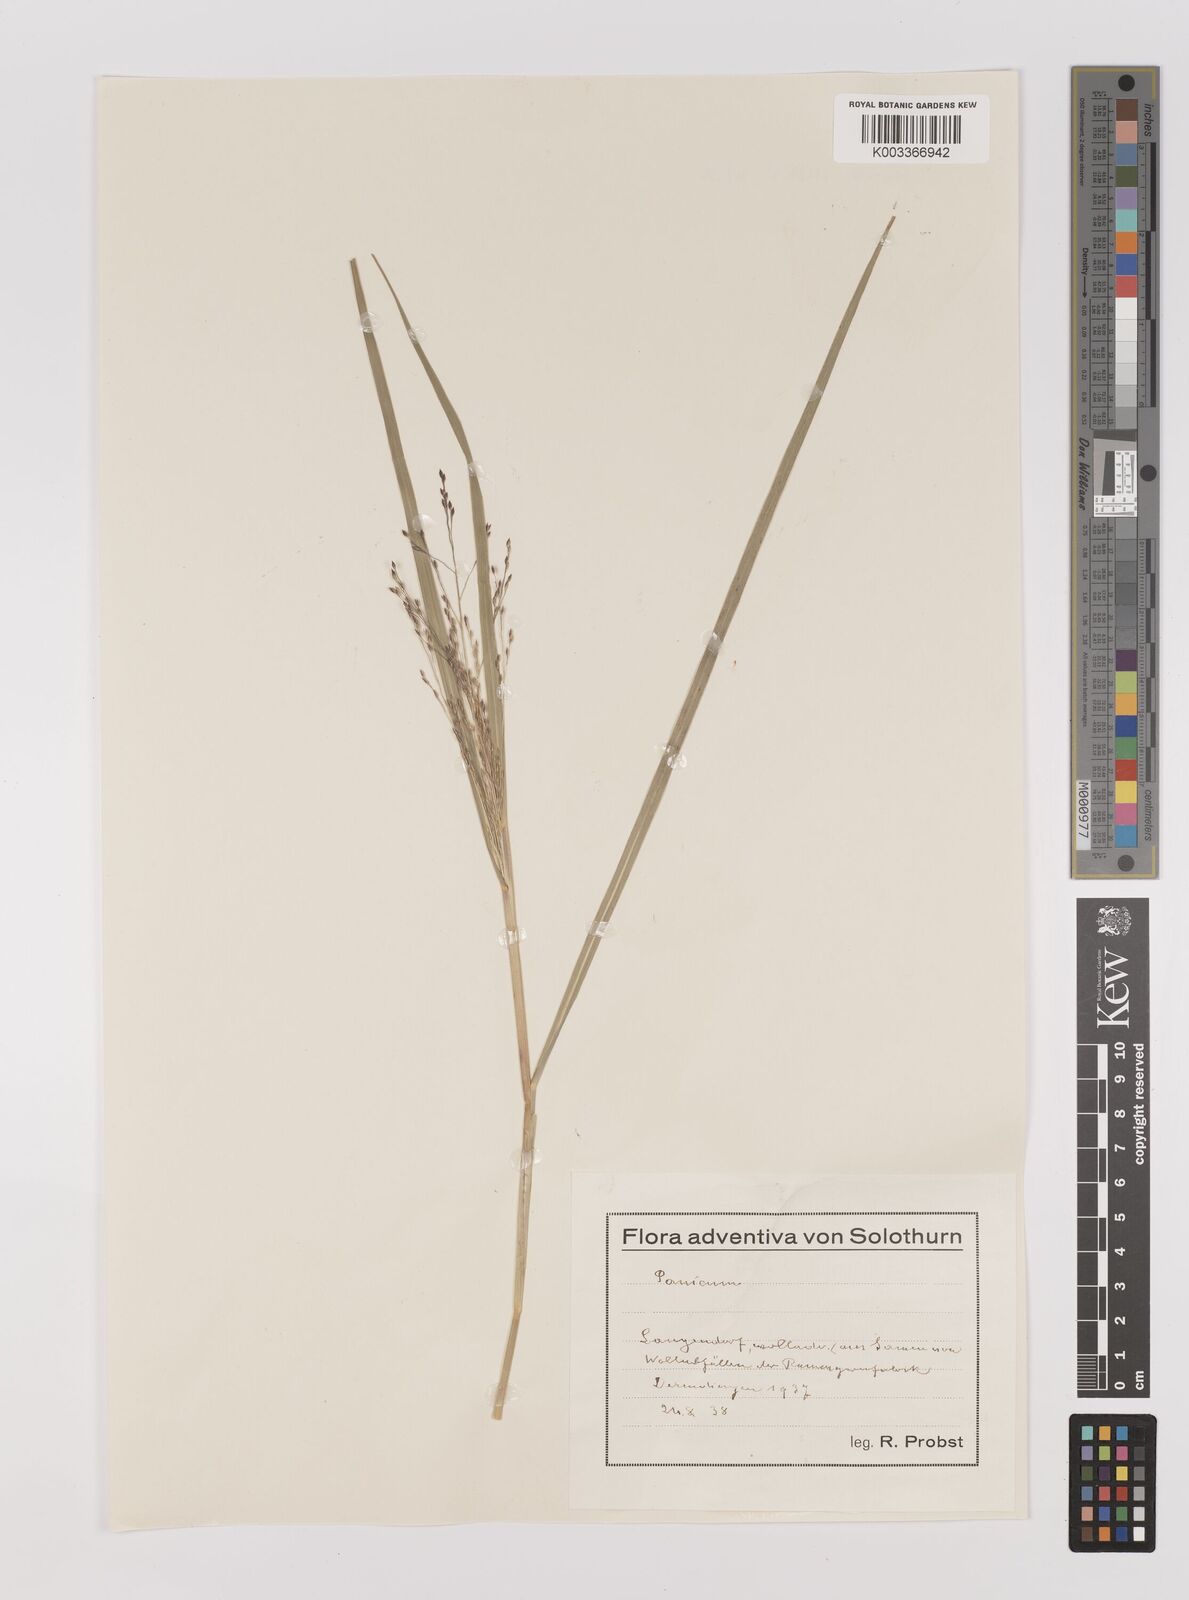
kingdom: Plantae
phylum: Tracheophyta
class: Liliopsida
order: Poales
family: Poaceae
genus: Panicum
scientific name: Panicum decompositum
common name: Australian millet
